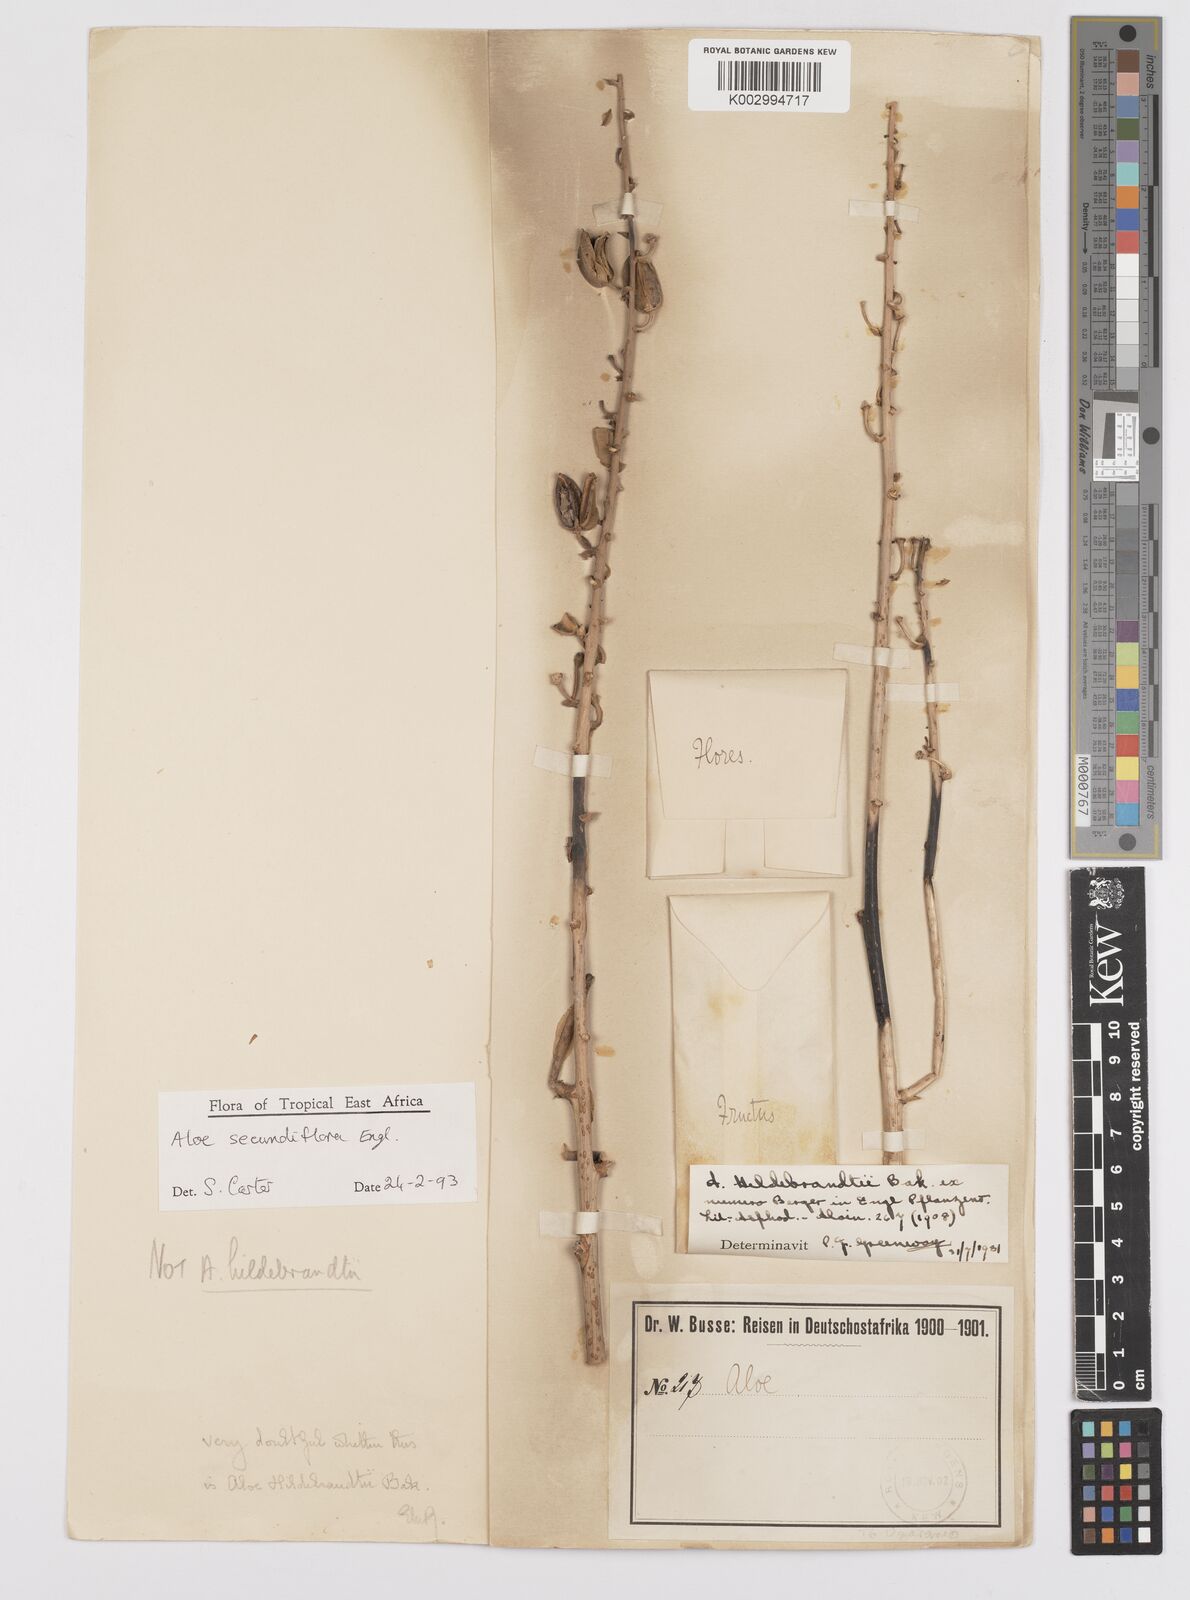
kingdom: Plantae
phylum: Tracheophyta
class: Liliopsida
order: Asparagales
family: Asphodelaceae
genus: Aloe
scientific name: Aloe secundiflora
